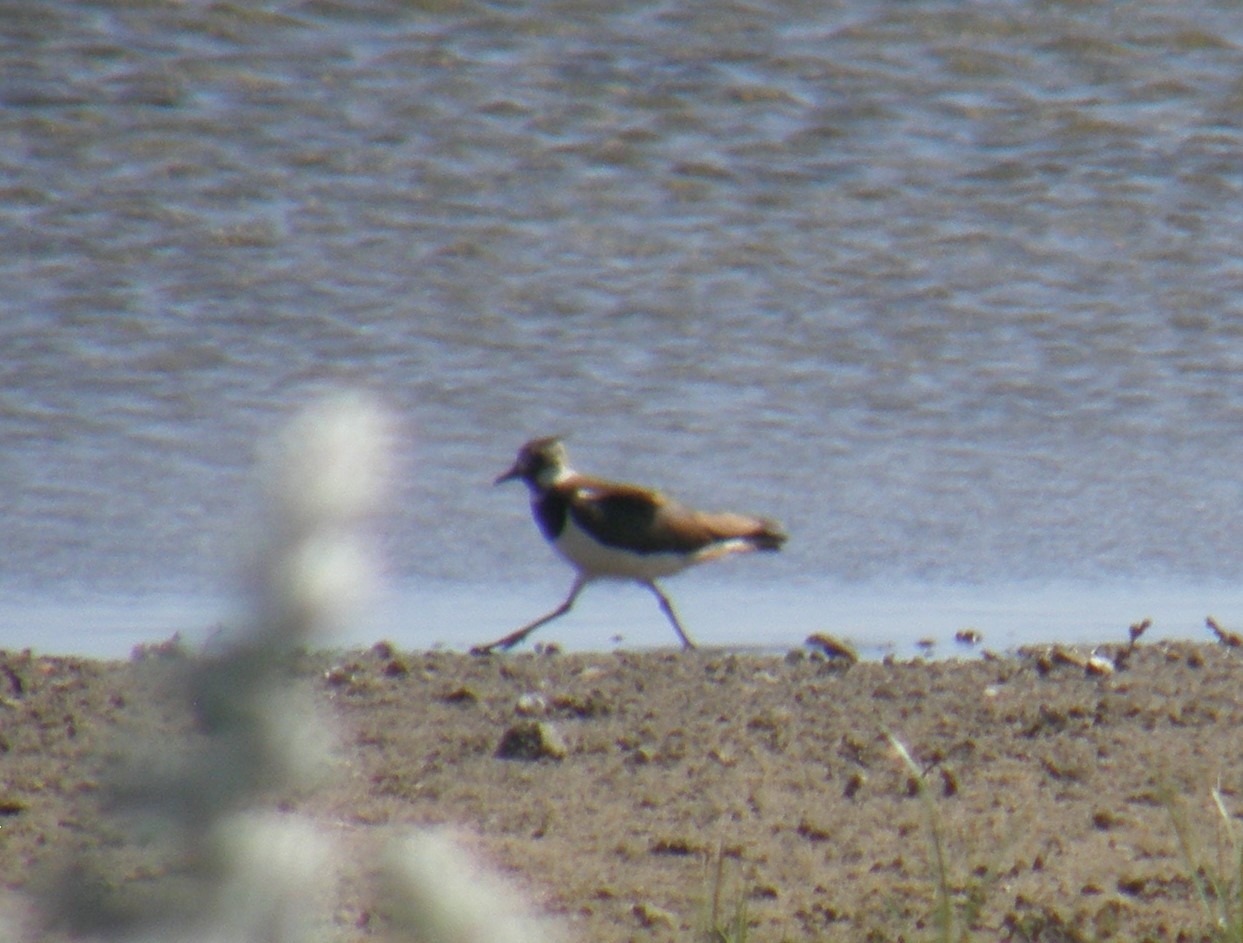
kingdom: Animalia
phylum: Chordata
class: Aves
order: Charadriiformes
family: Charadriidae
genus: Vanellus
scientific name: Vanellus vanellus
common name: Vibe
